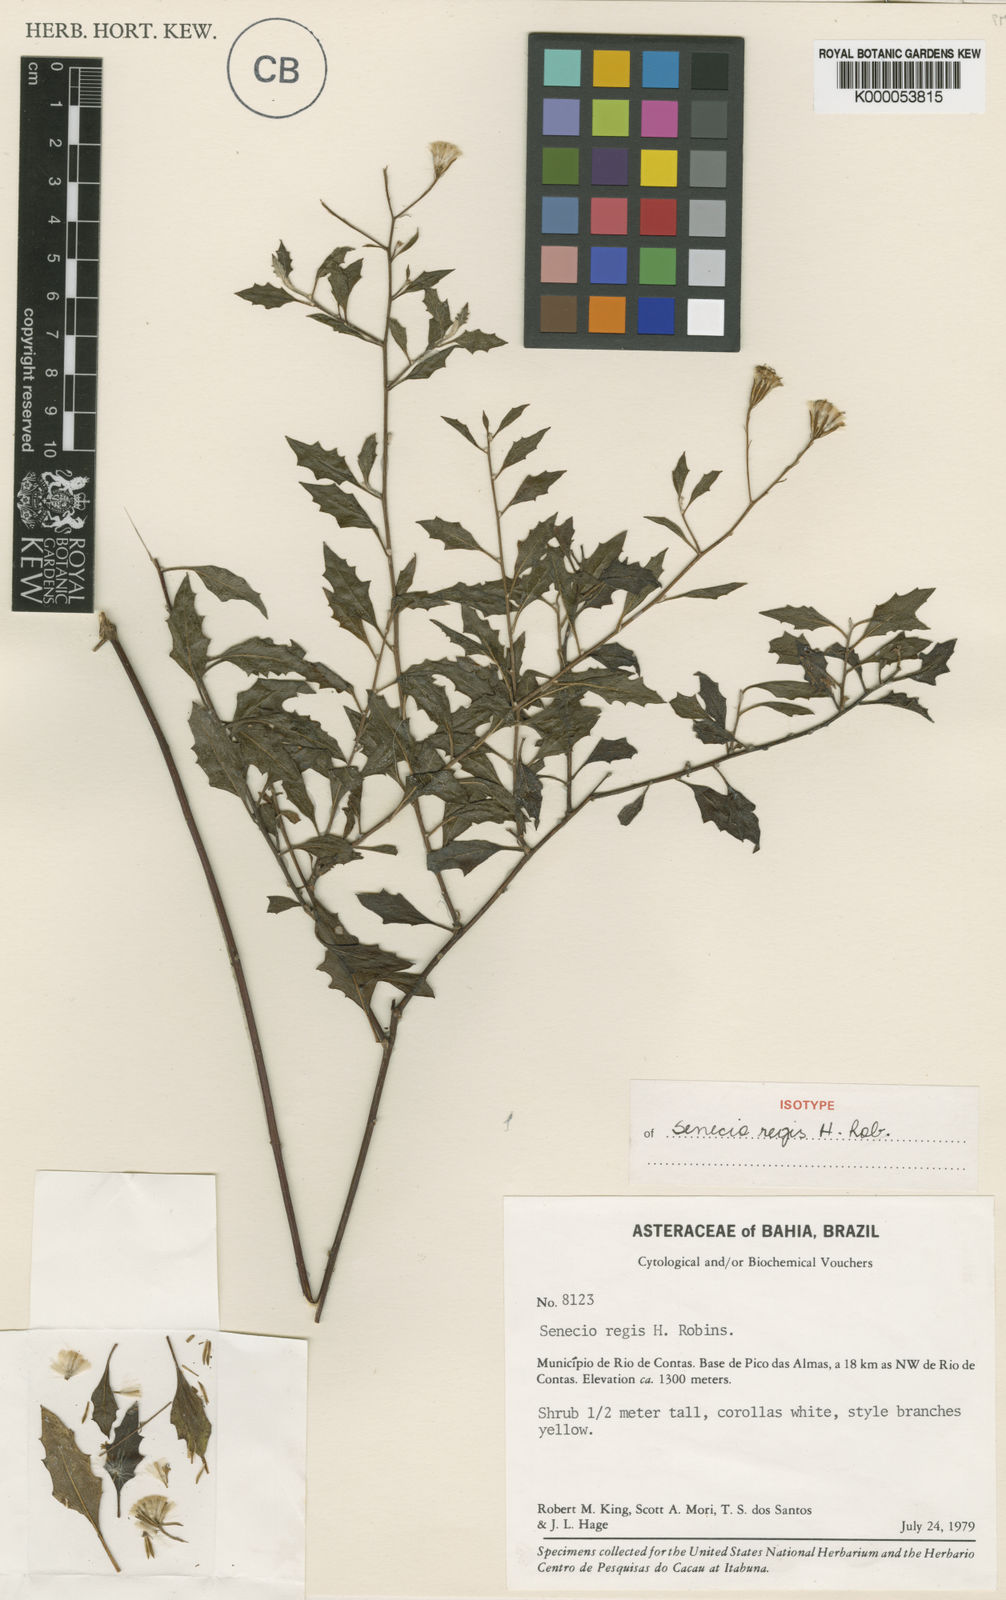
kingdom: Plantae
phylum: Tracheophyta
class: Magnoliopsida
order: Asterales
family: Asteraceae
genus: Senecio
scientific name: Senecio regis
